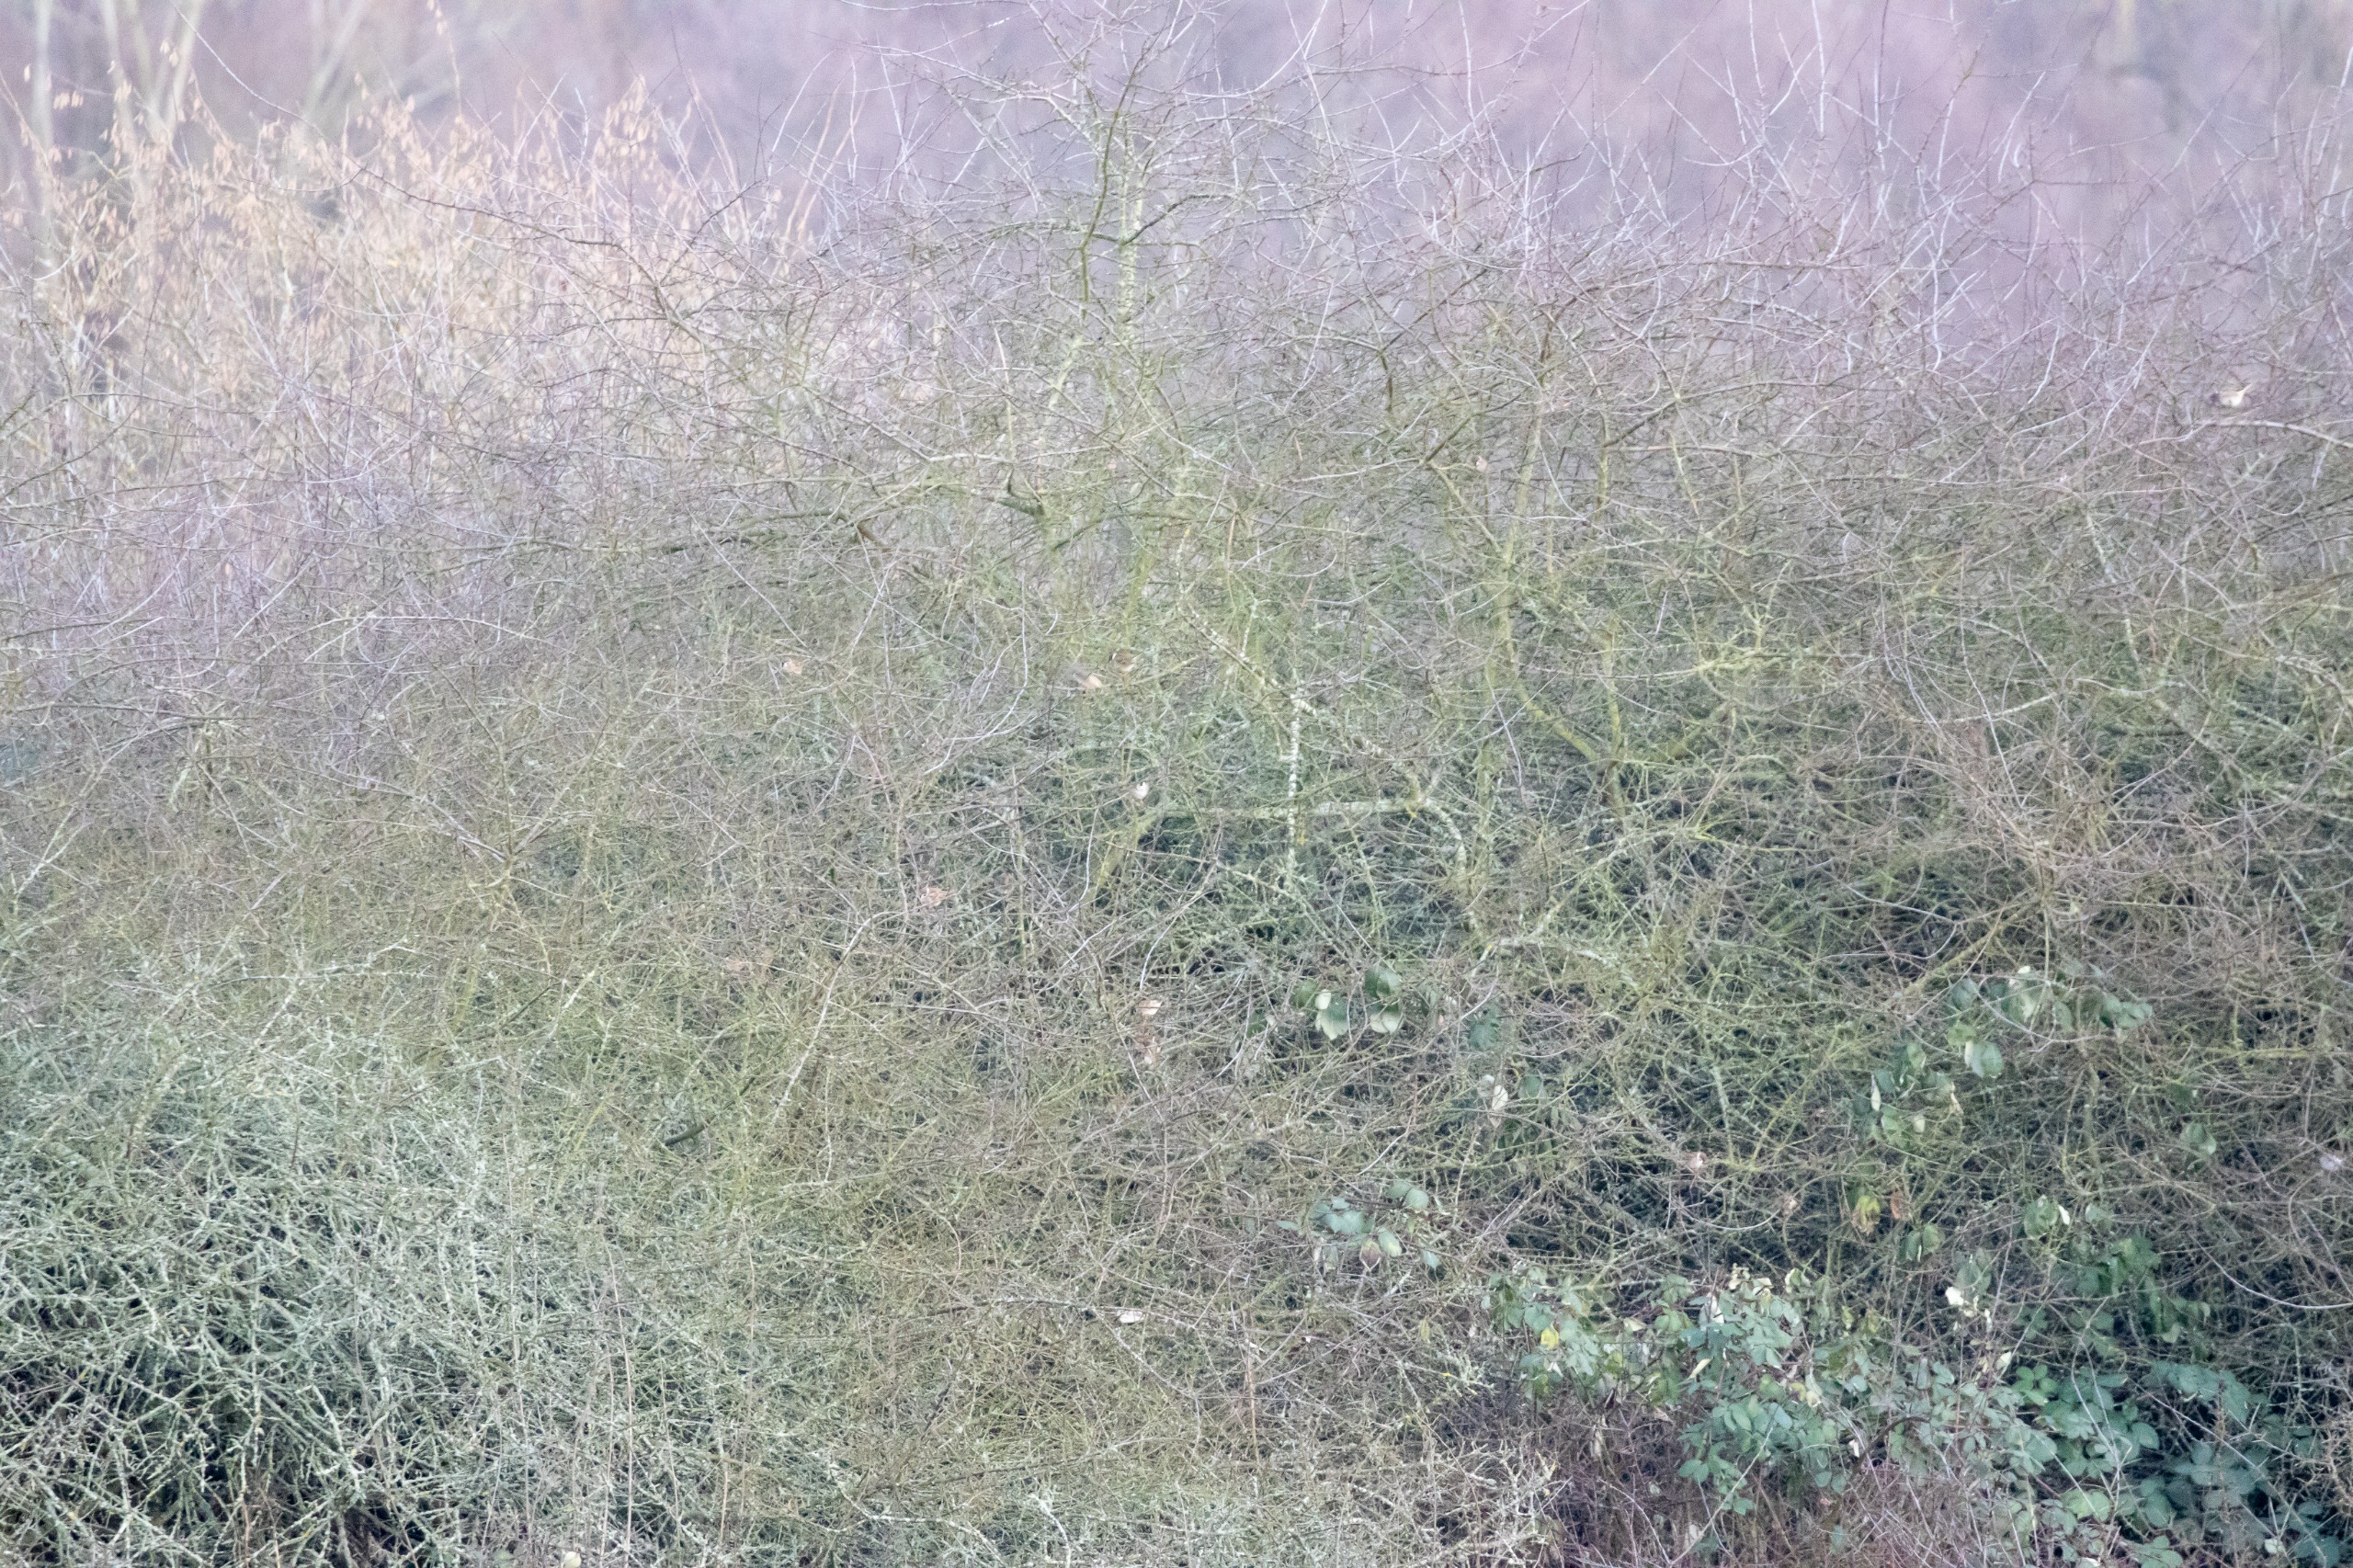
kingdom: Animalia
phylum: Chordata
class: Aves
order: Passeriformes
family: Passeridae
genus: Passer
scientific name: Passer montanus
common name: Skovspurv
